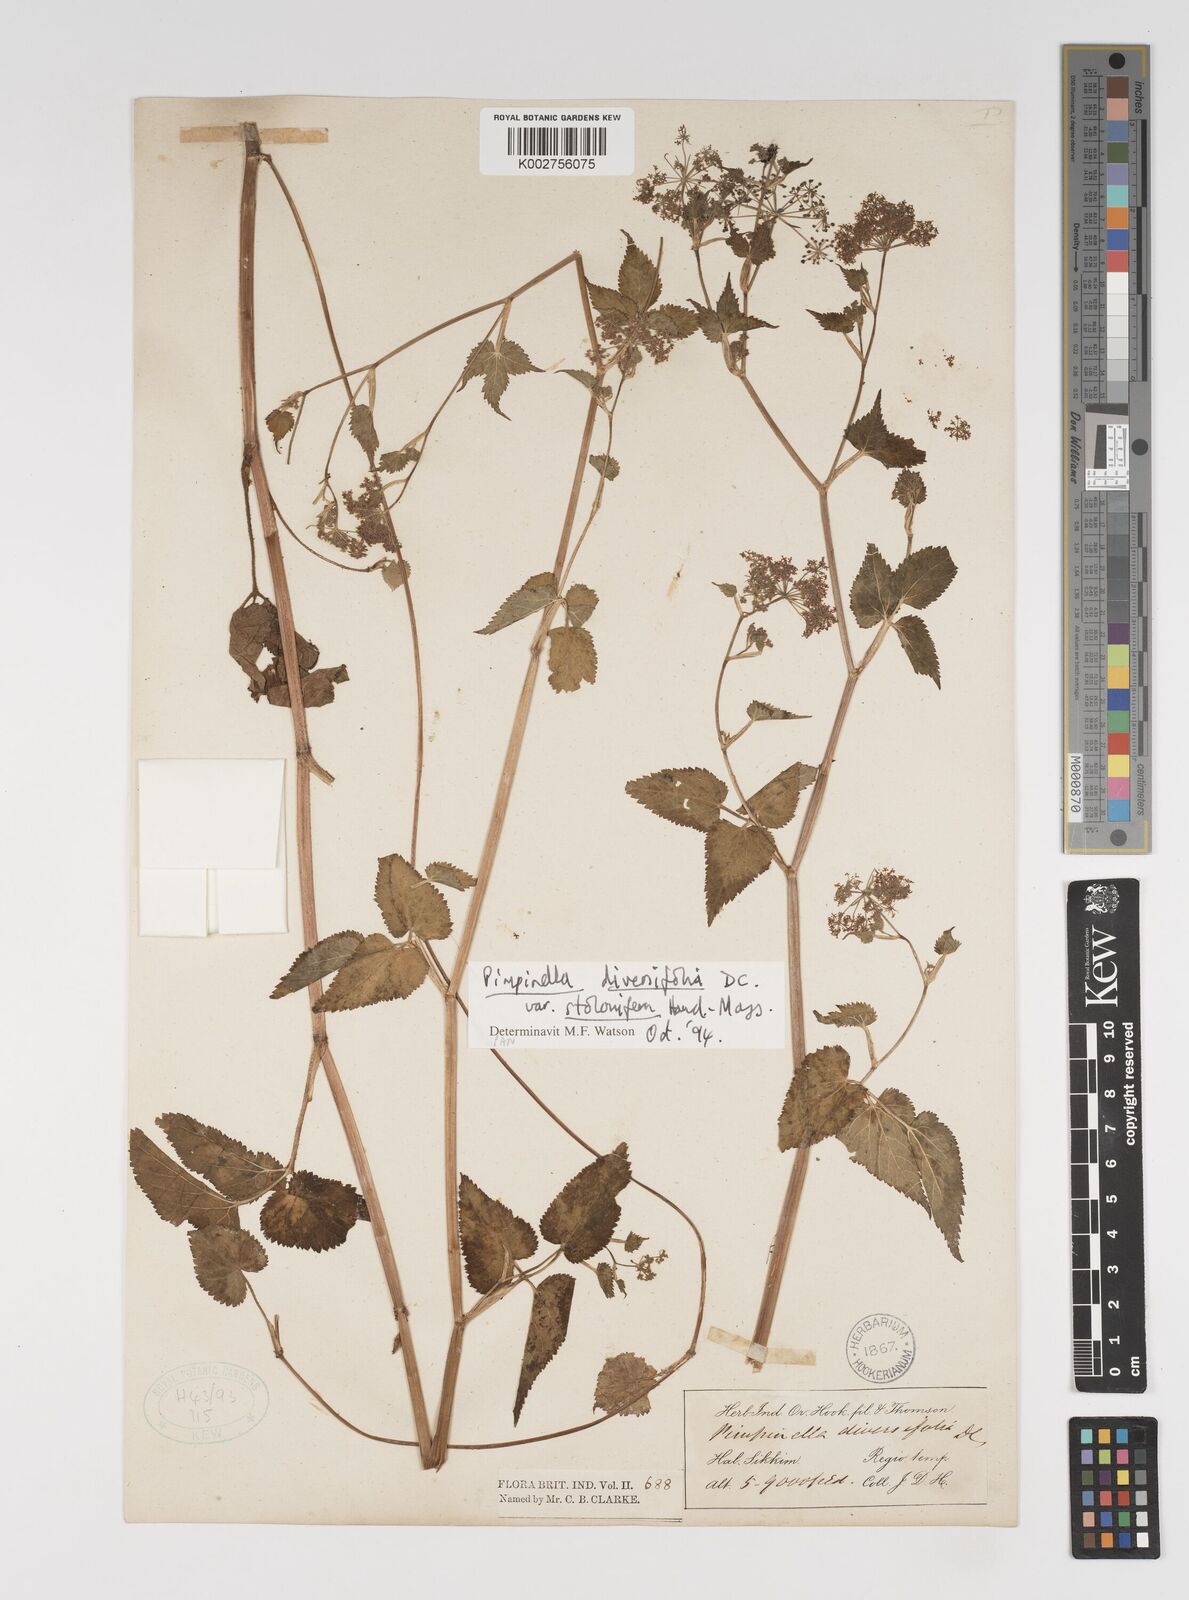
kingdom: Plantae
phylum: Tracheophyta
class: Magnoliopsida
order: Apiales
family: Apiaceae
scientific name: Apiaceae
